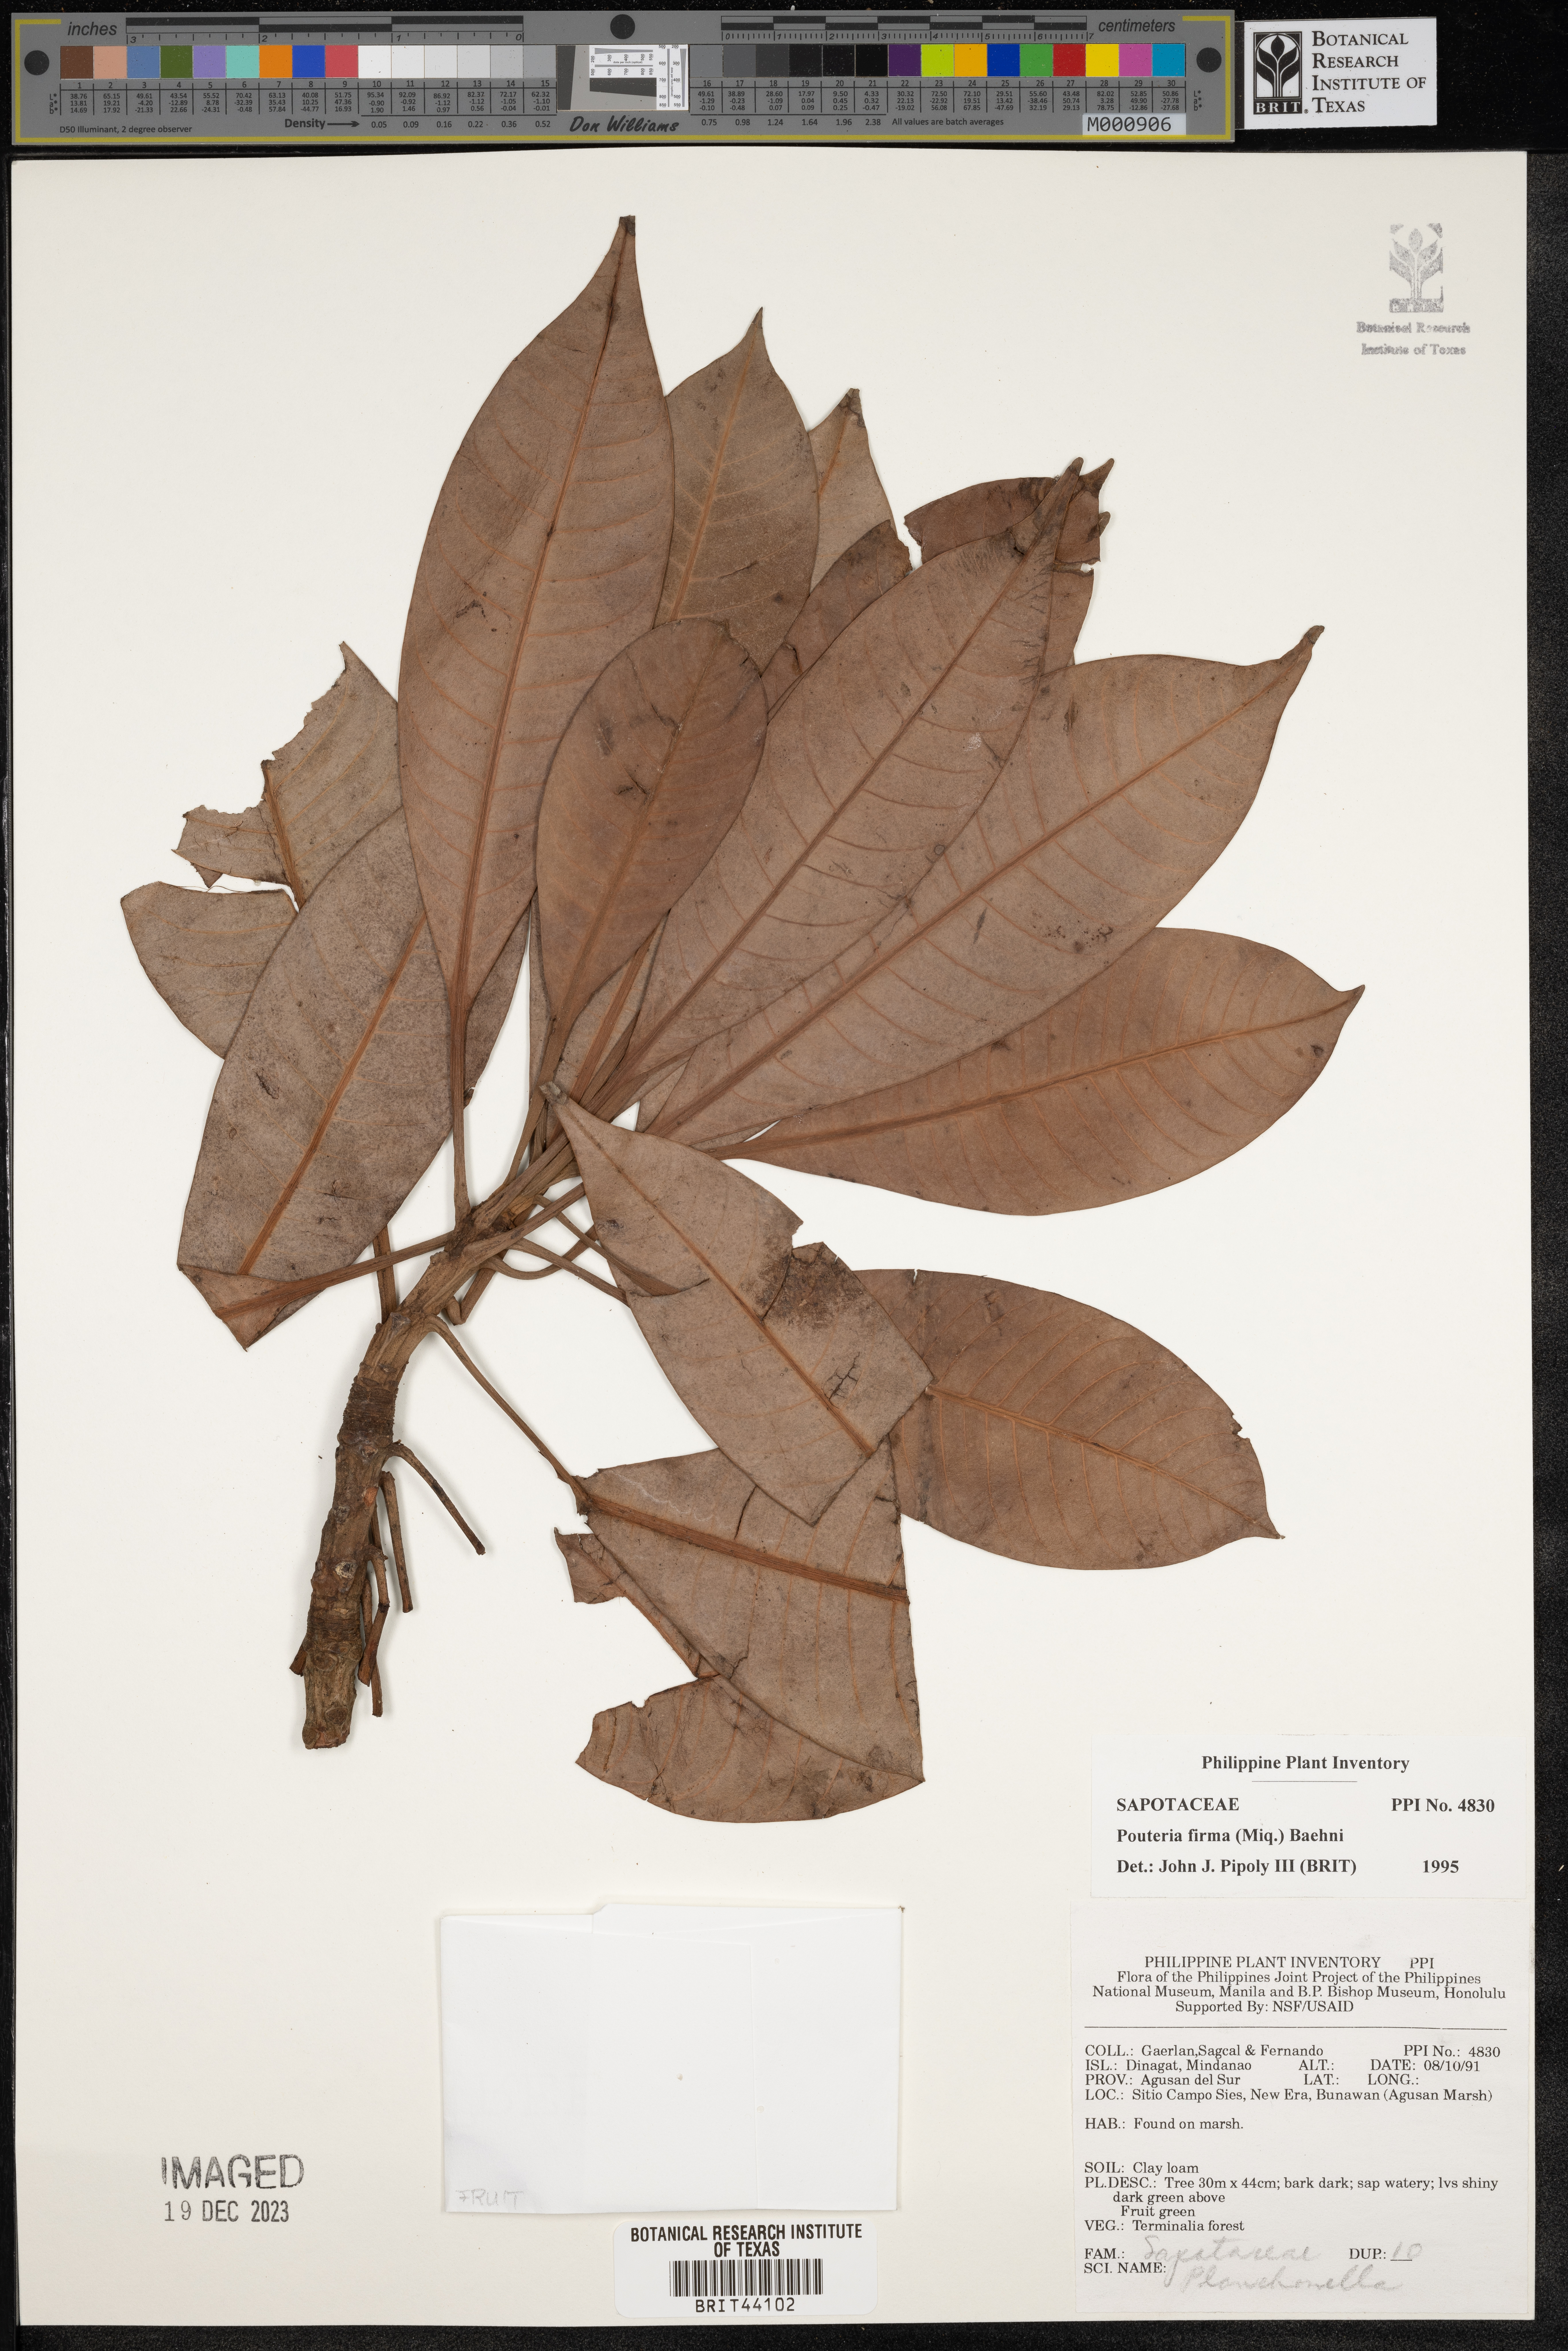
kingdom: Plantae
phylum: Tracheophyta
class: Magnoliopsida
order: Ericales
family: Sapotaceae
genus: Pleioluma
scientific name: Pleioluma firma
